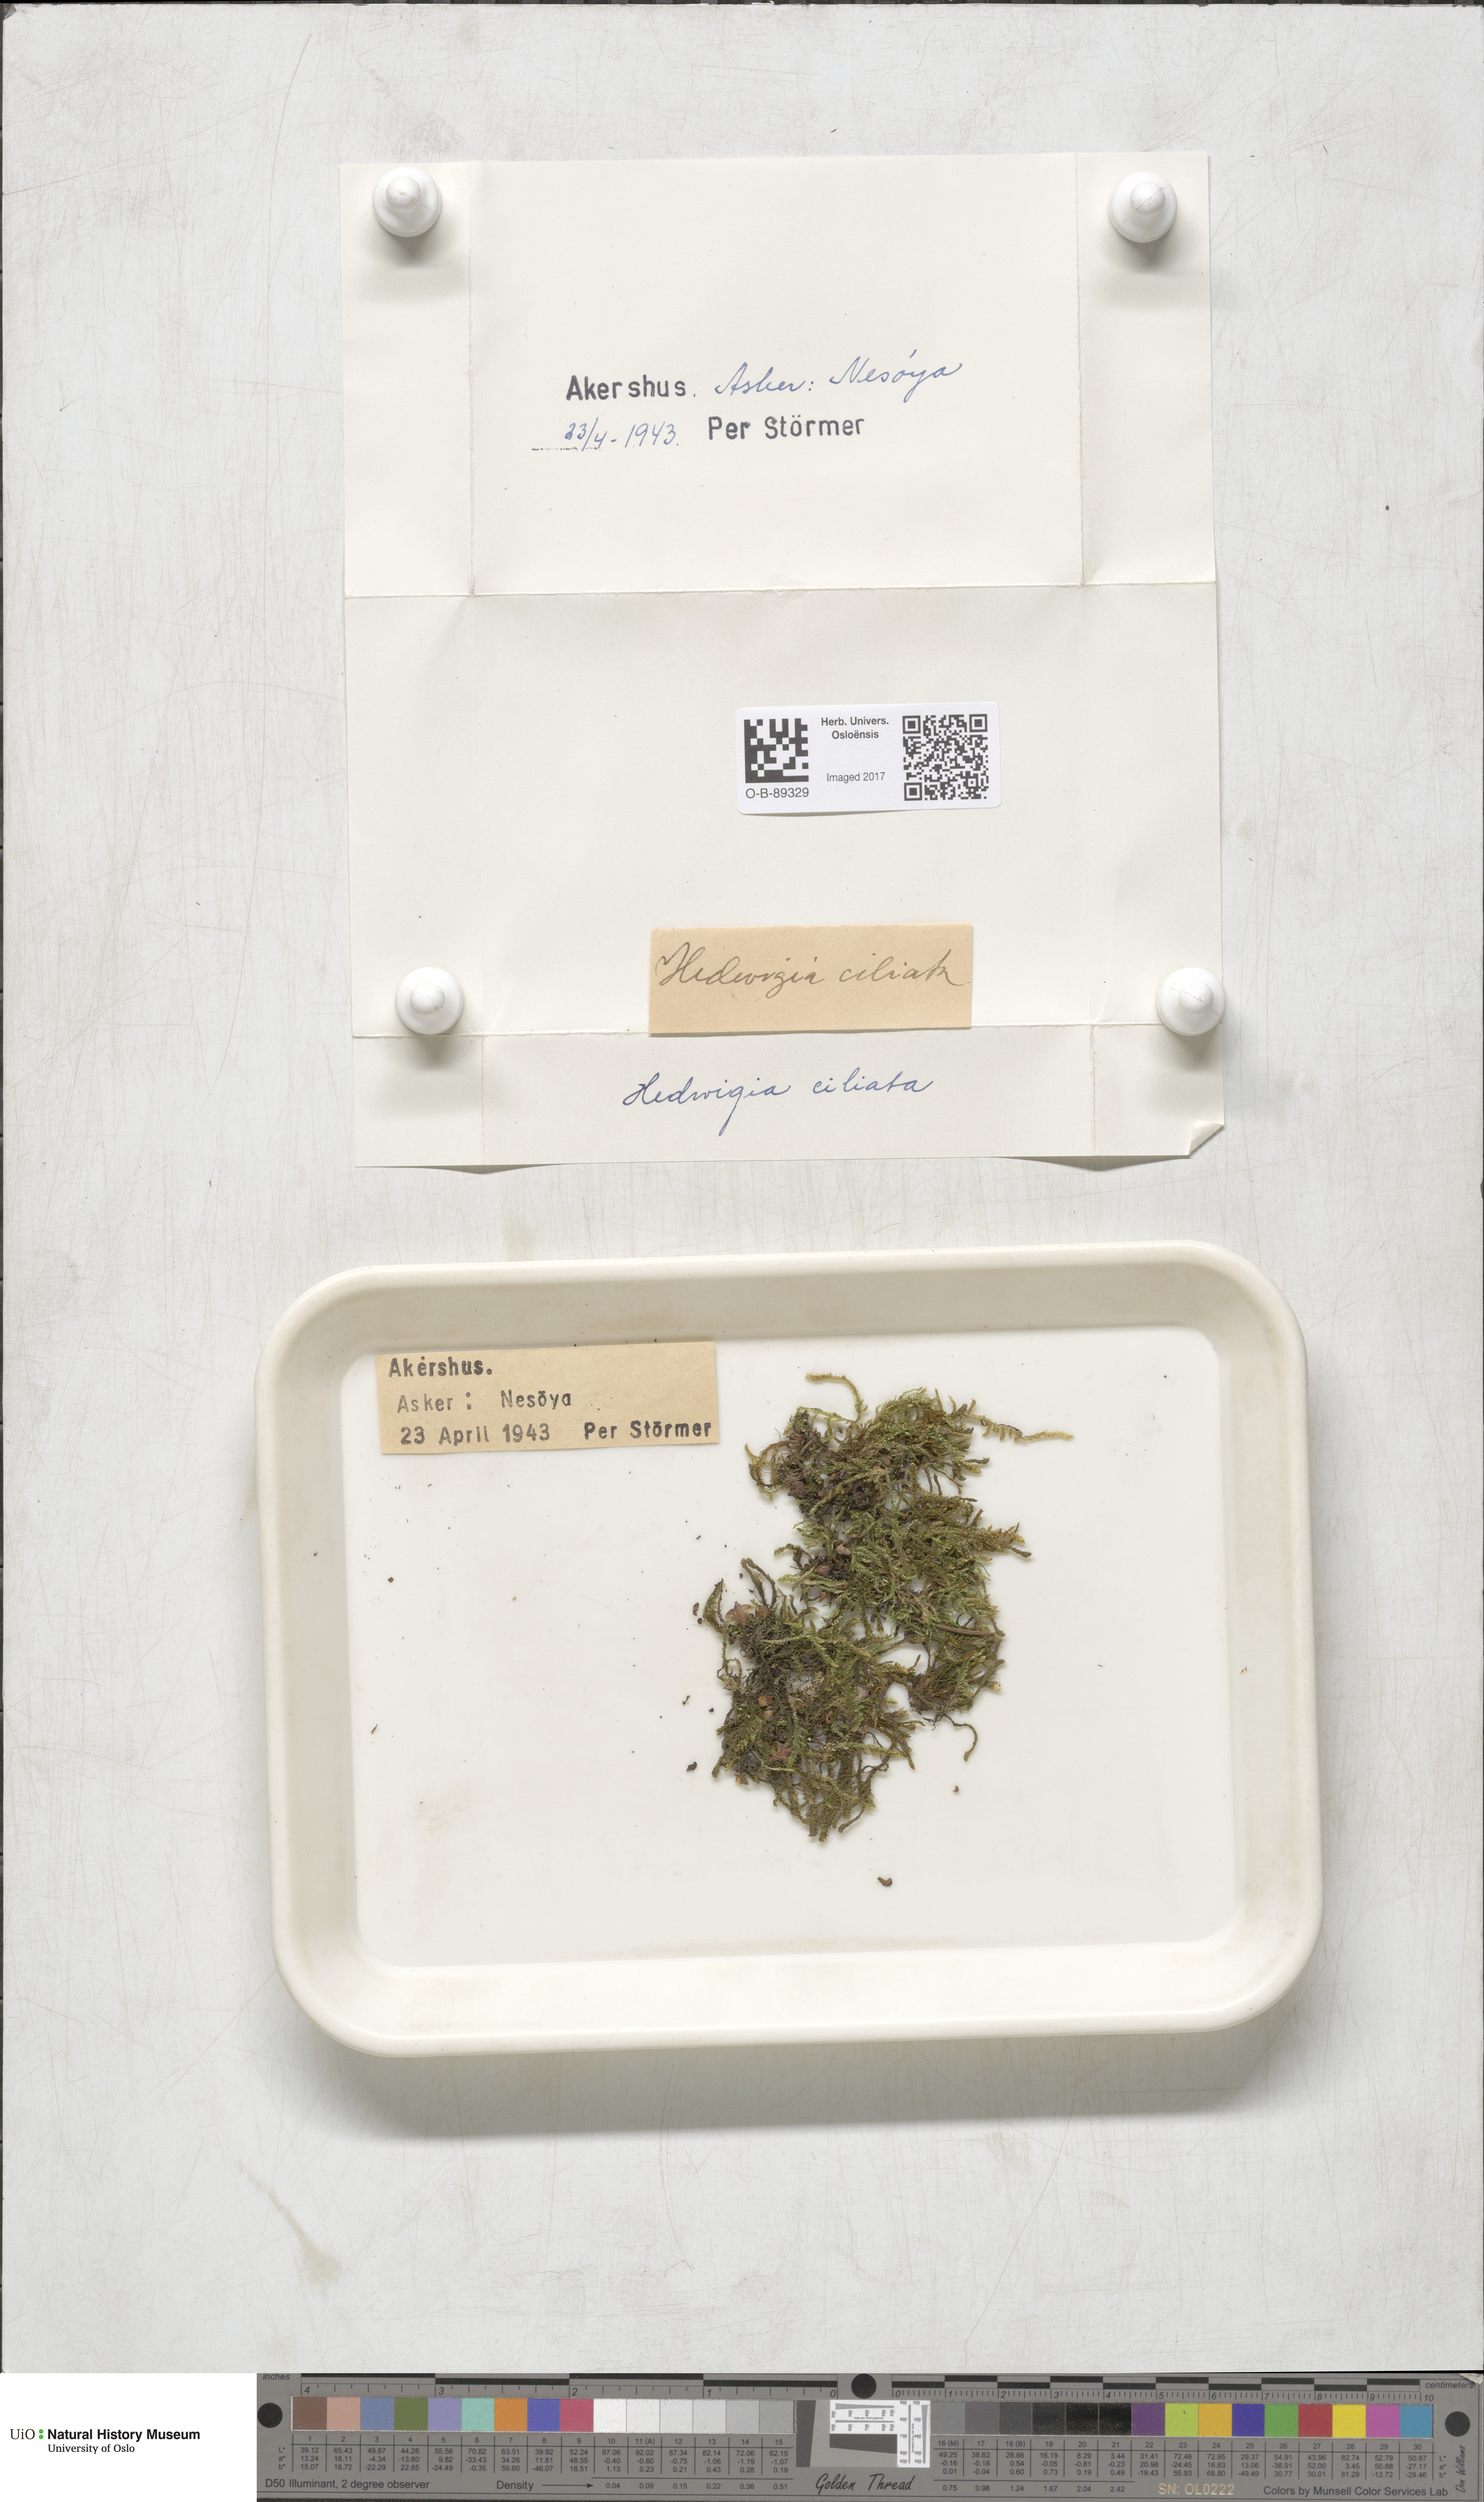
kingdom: Plantae
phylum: Bryophyta
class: Bryopsida
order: Hedwigiales
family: Hedwigiaceae
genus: Hedwigia
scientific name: Hedwigia ciliata
